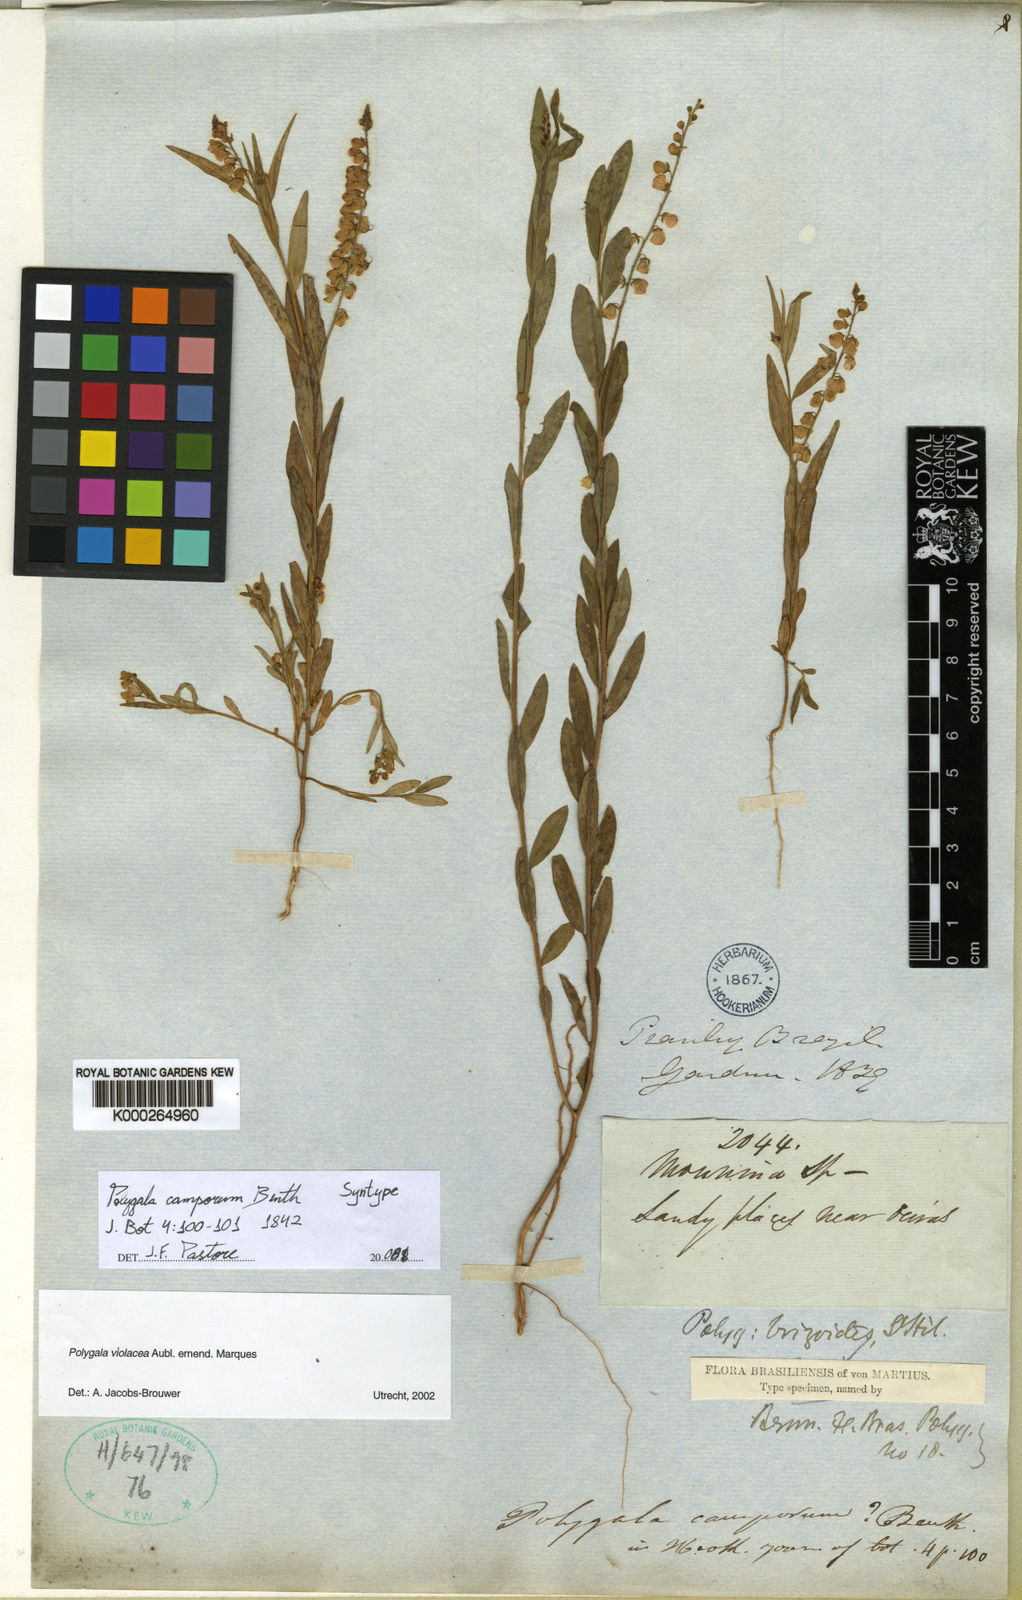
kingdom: Plantae
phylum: Tracheophyta
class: Magnoliopsida
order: Fabales
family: Polygalaceae
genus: Asemeia
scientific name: Asemeia violacea
